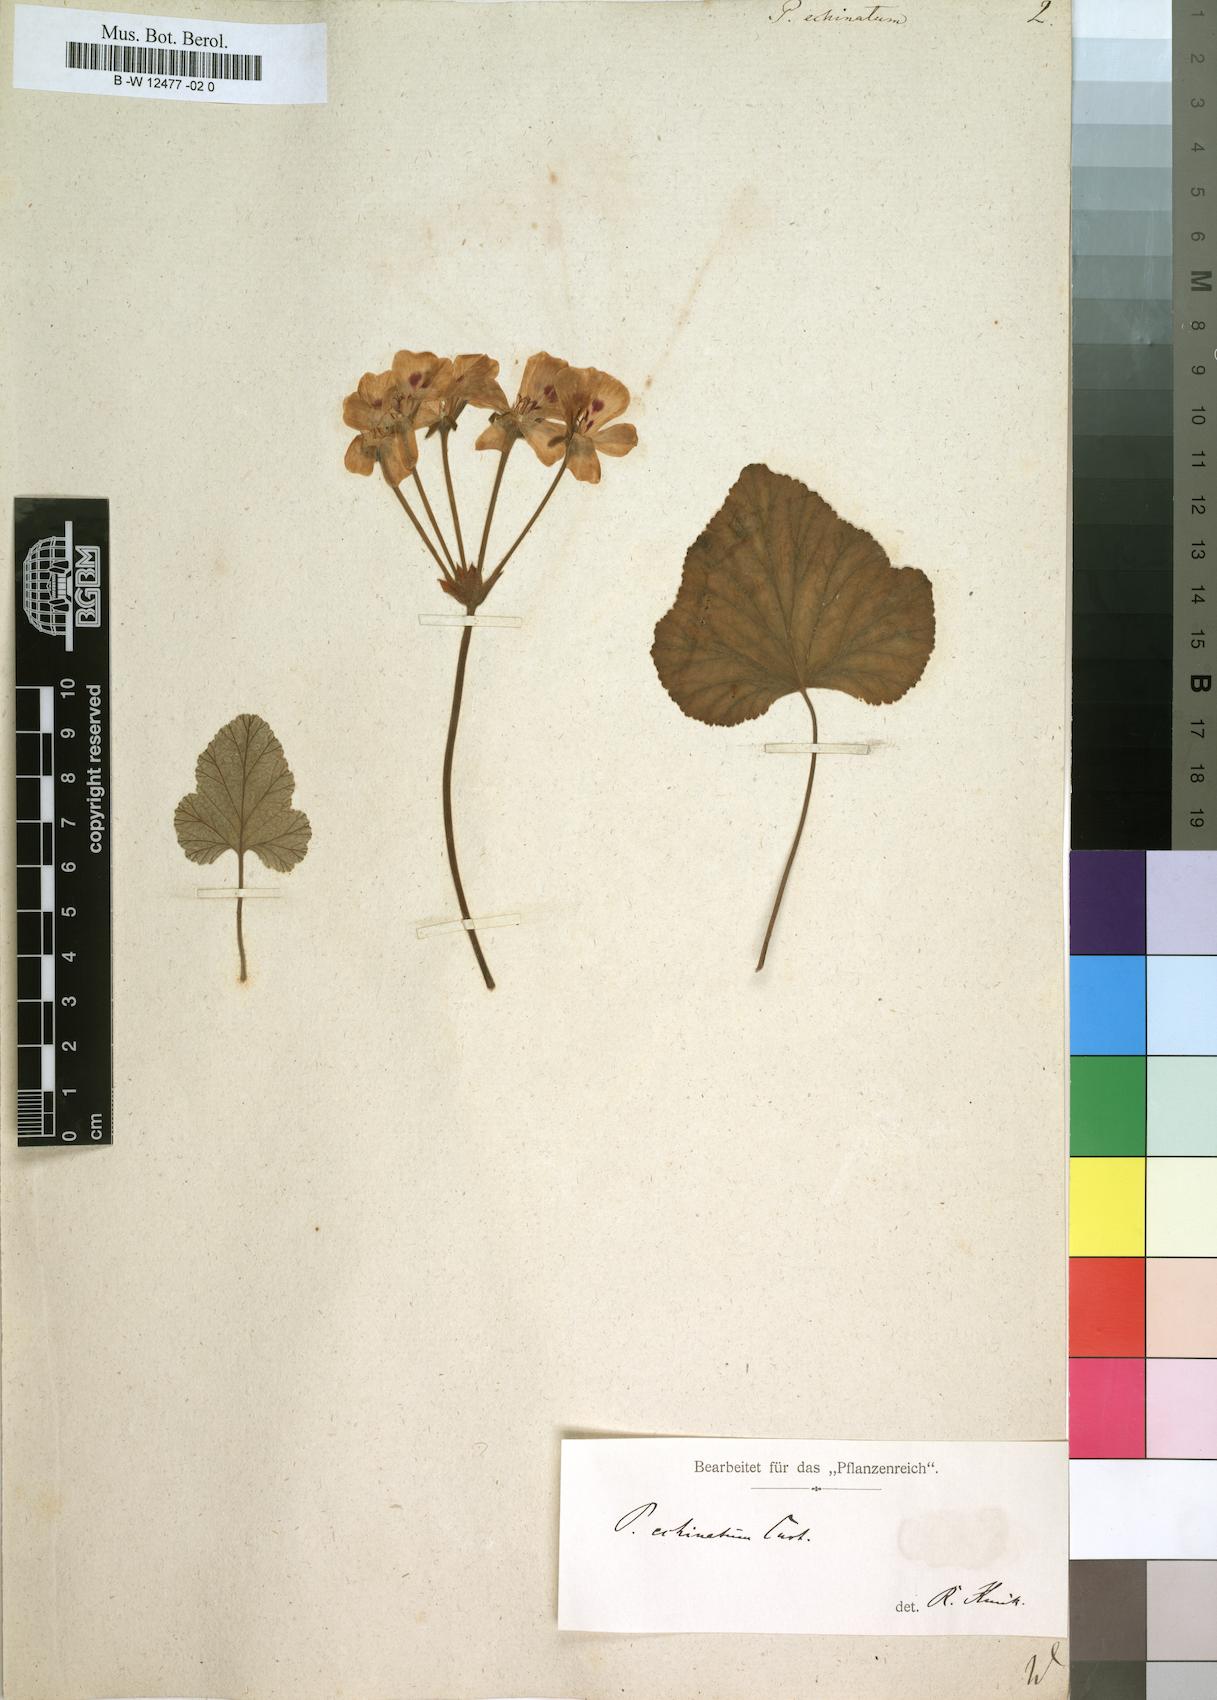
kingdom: Plantae
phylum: Tracheophyta
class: Magnoliopsida
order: Geraniales
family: Geraniaceae
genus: Pelargonium
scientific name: Pelargonium echinatum
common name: Cactus geranium
